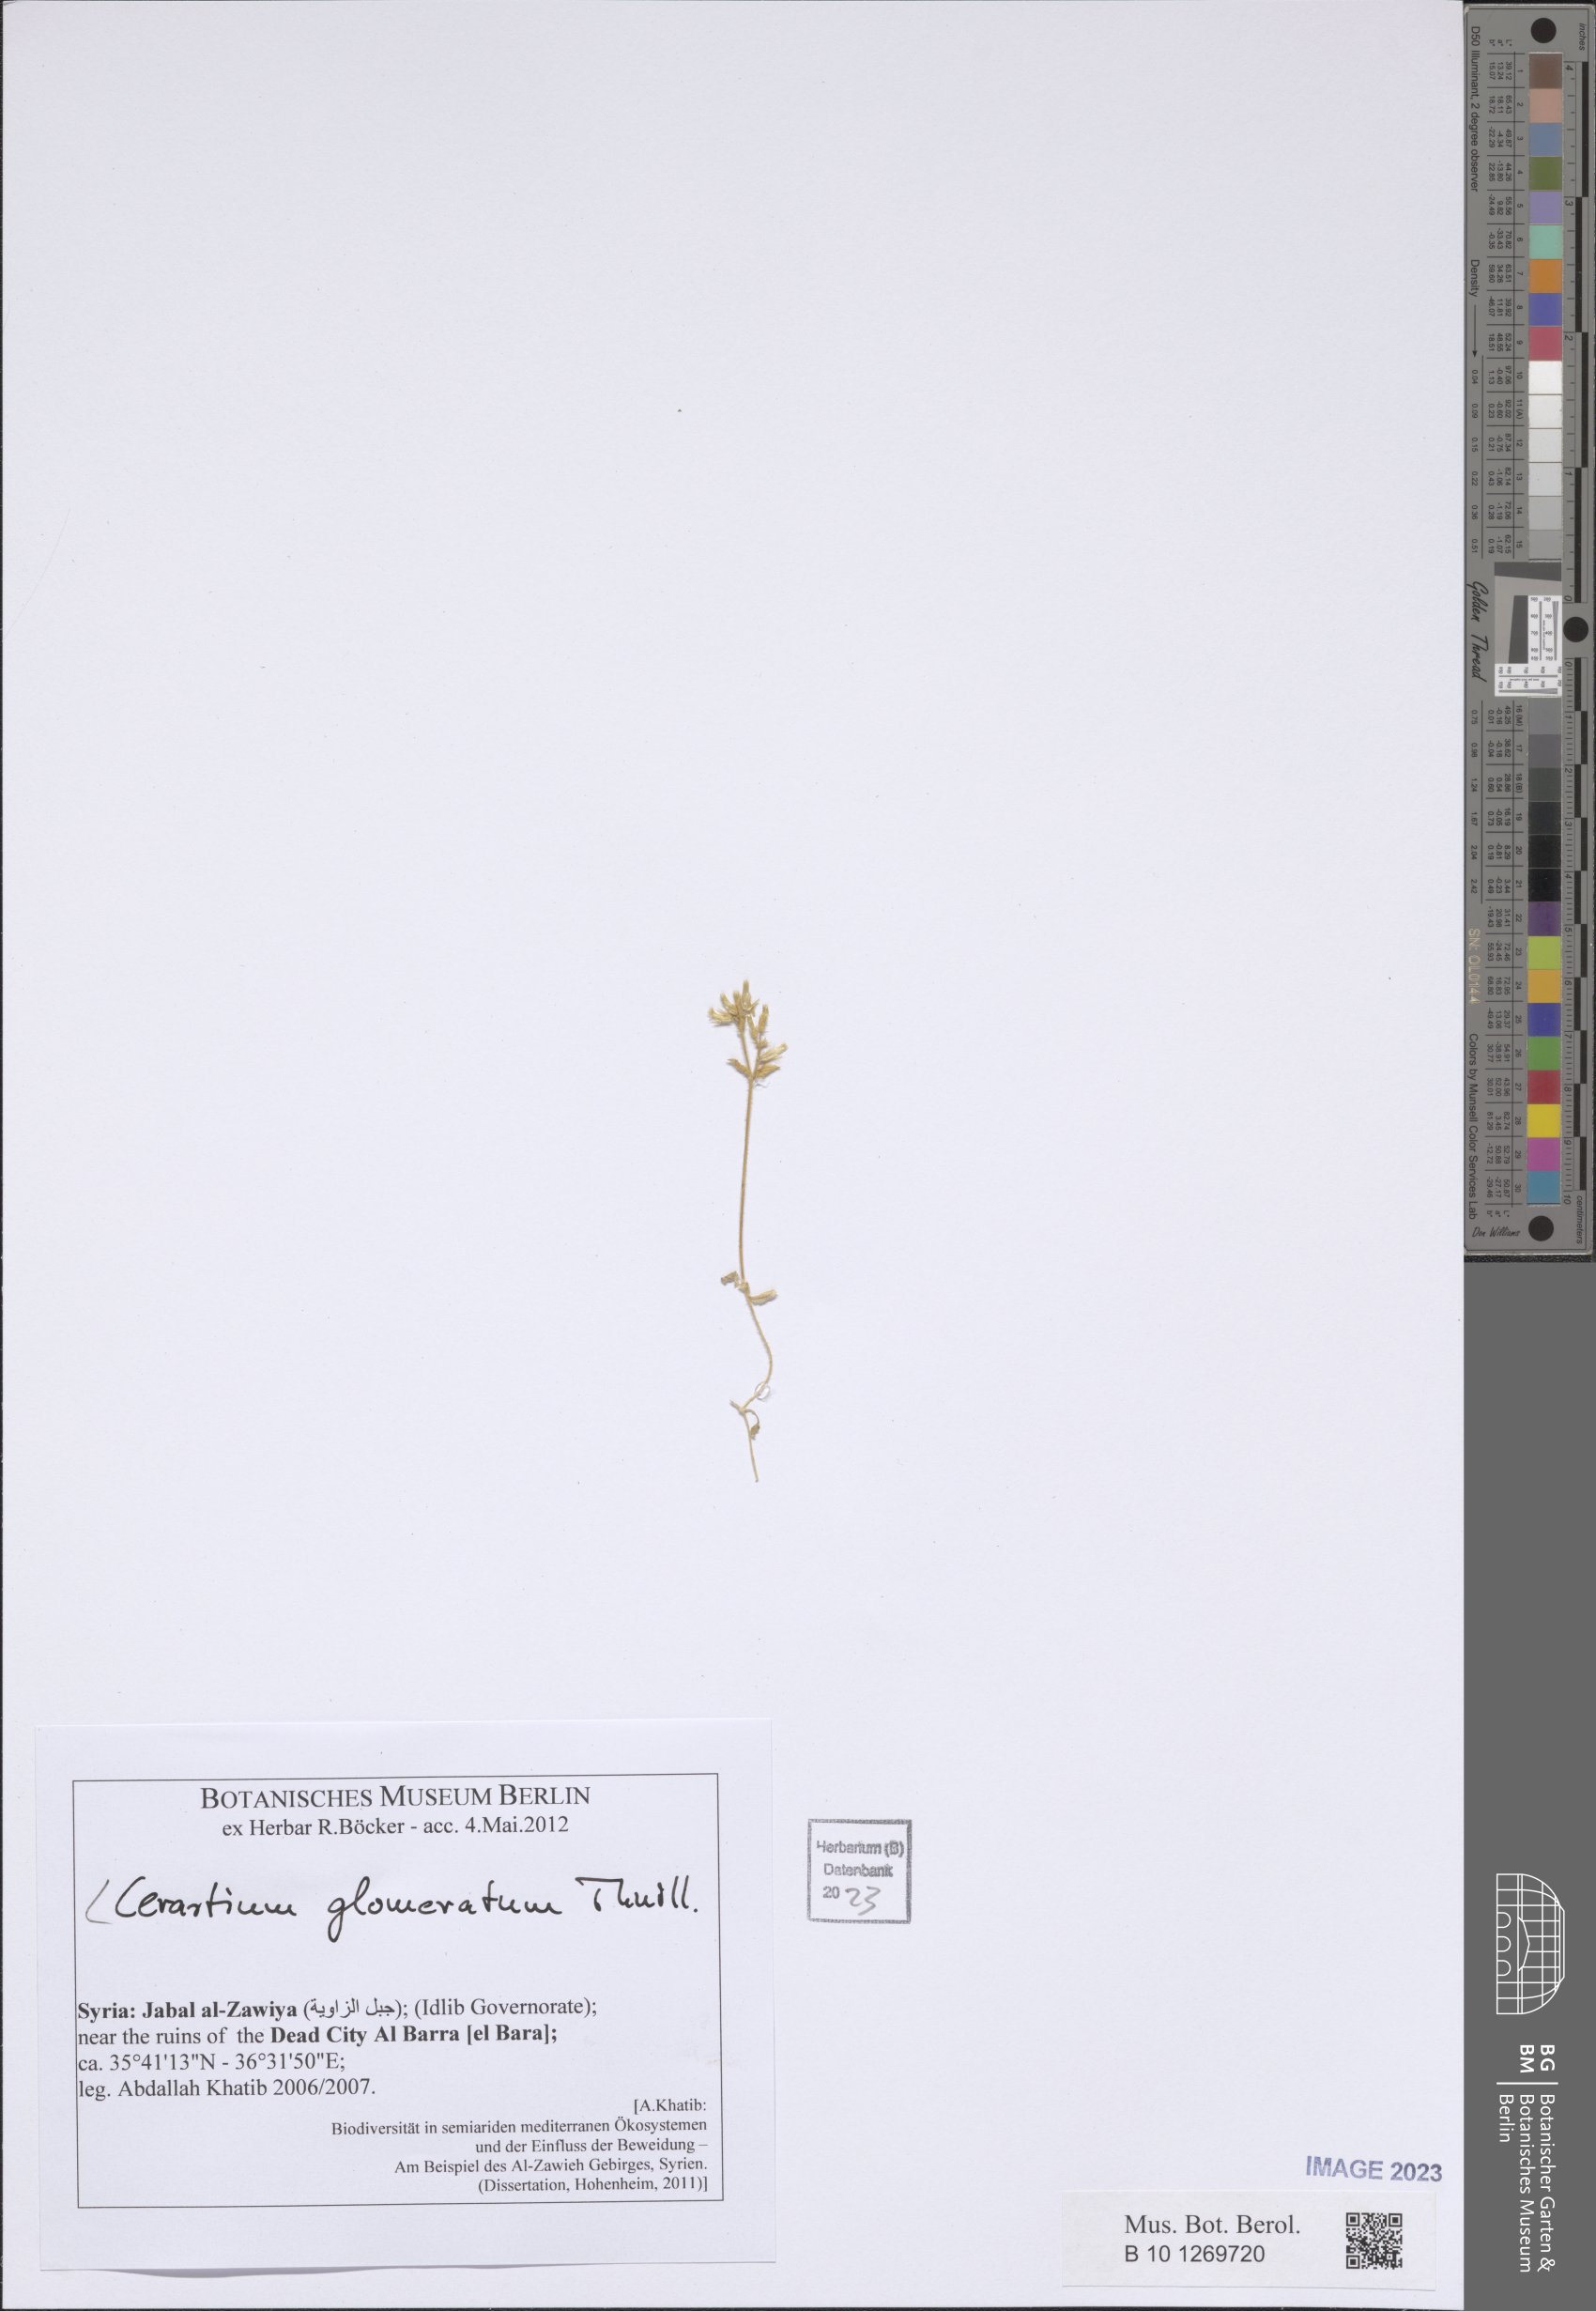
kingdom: Plantae
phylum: Tracheophyta
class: Magnoliopsida
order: Caryophyllales
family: Caryophyllaceae
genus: Cerastium
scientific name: Cerastium glomeratum
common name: Sticky chickweed
